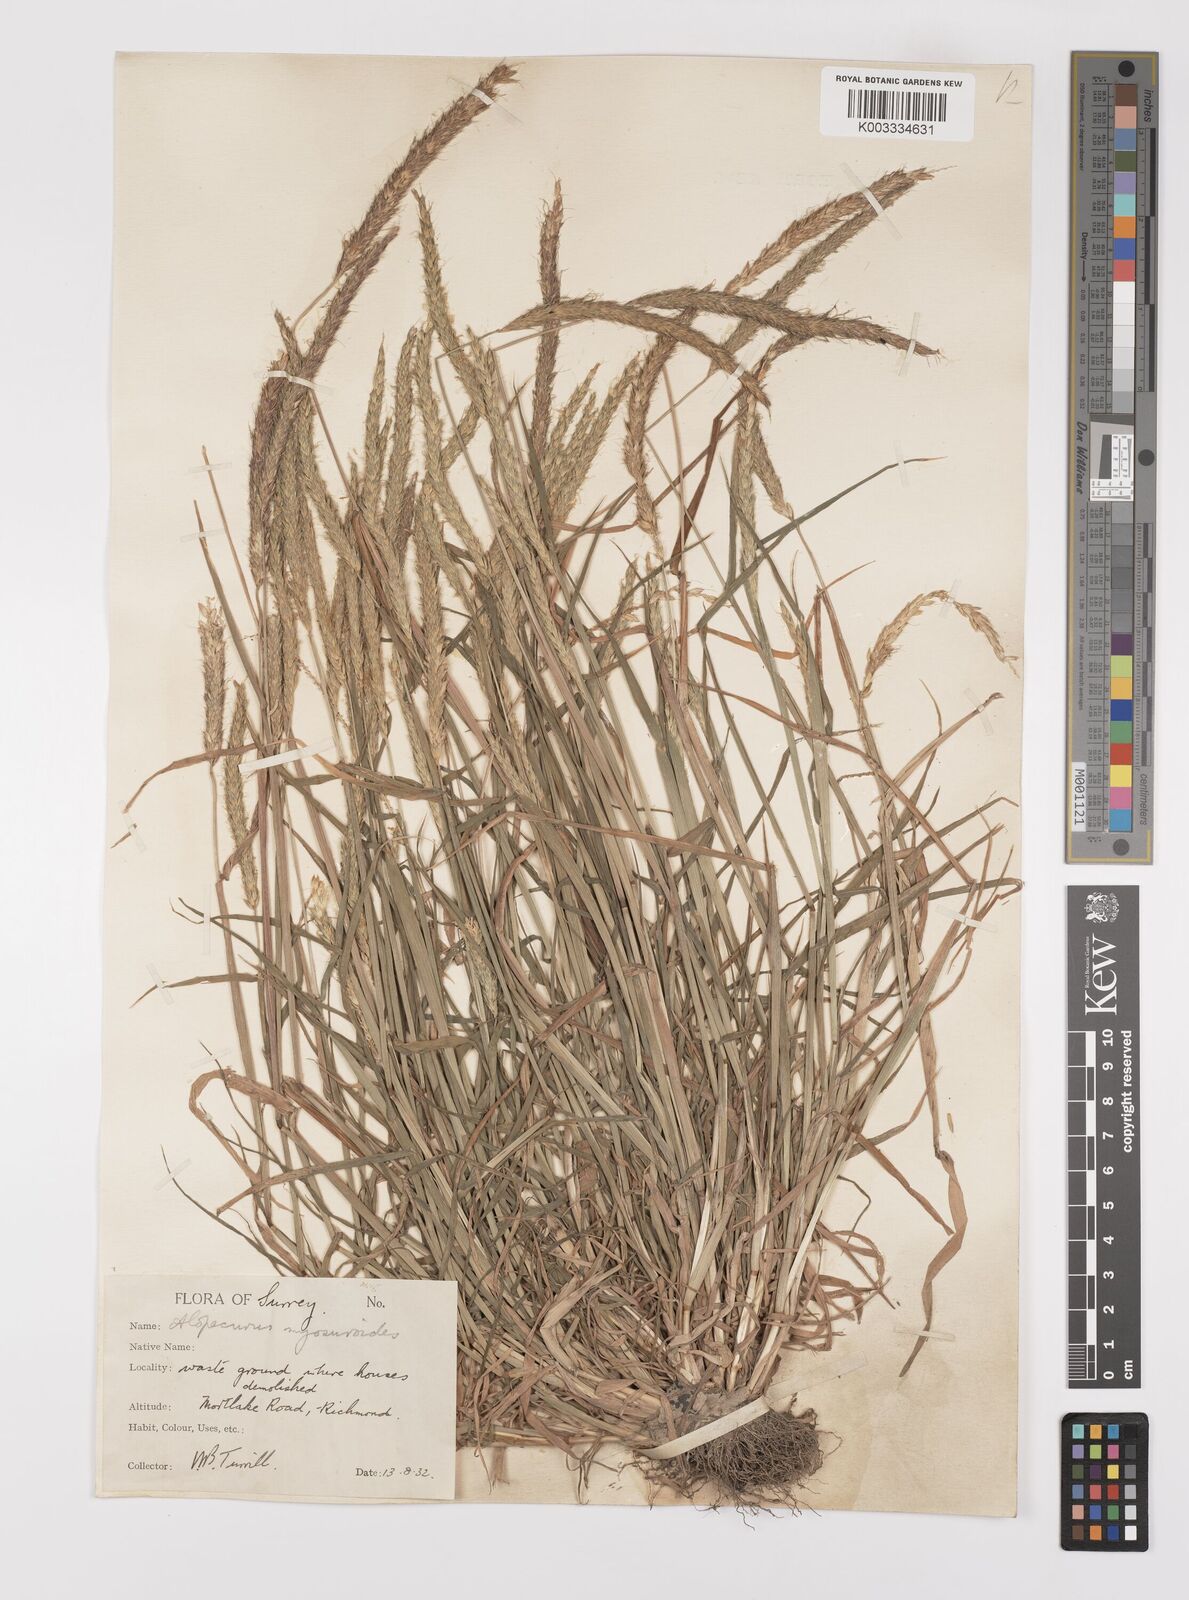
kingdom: Plantae
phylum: Tracheophyta
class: Liliopsida
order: Poales
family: Poaceae
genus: Alopecurus
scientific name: Alopecurus myosuroides
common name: Black-grass
